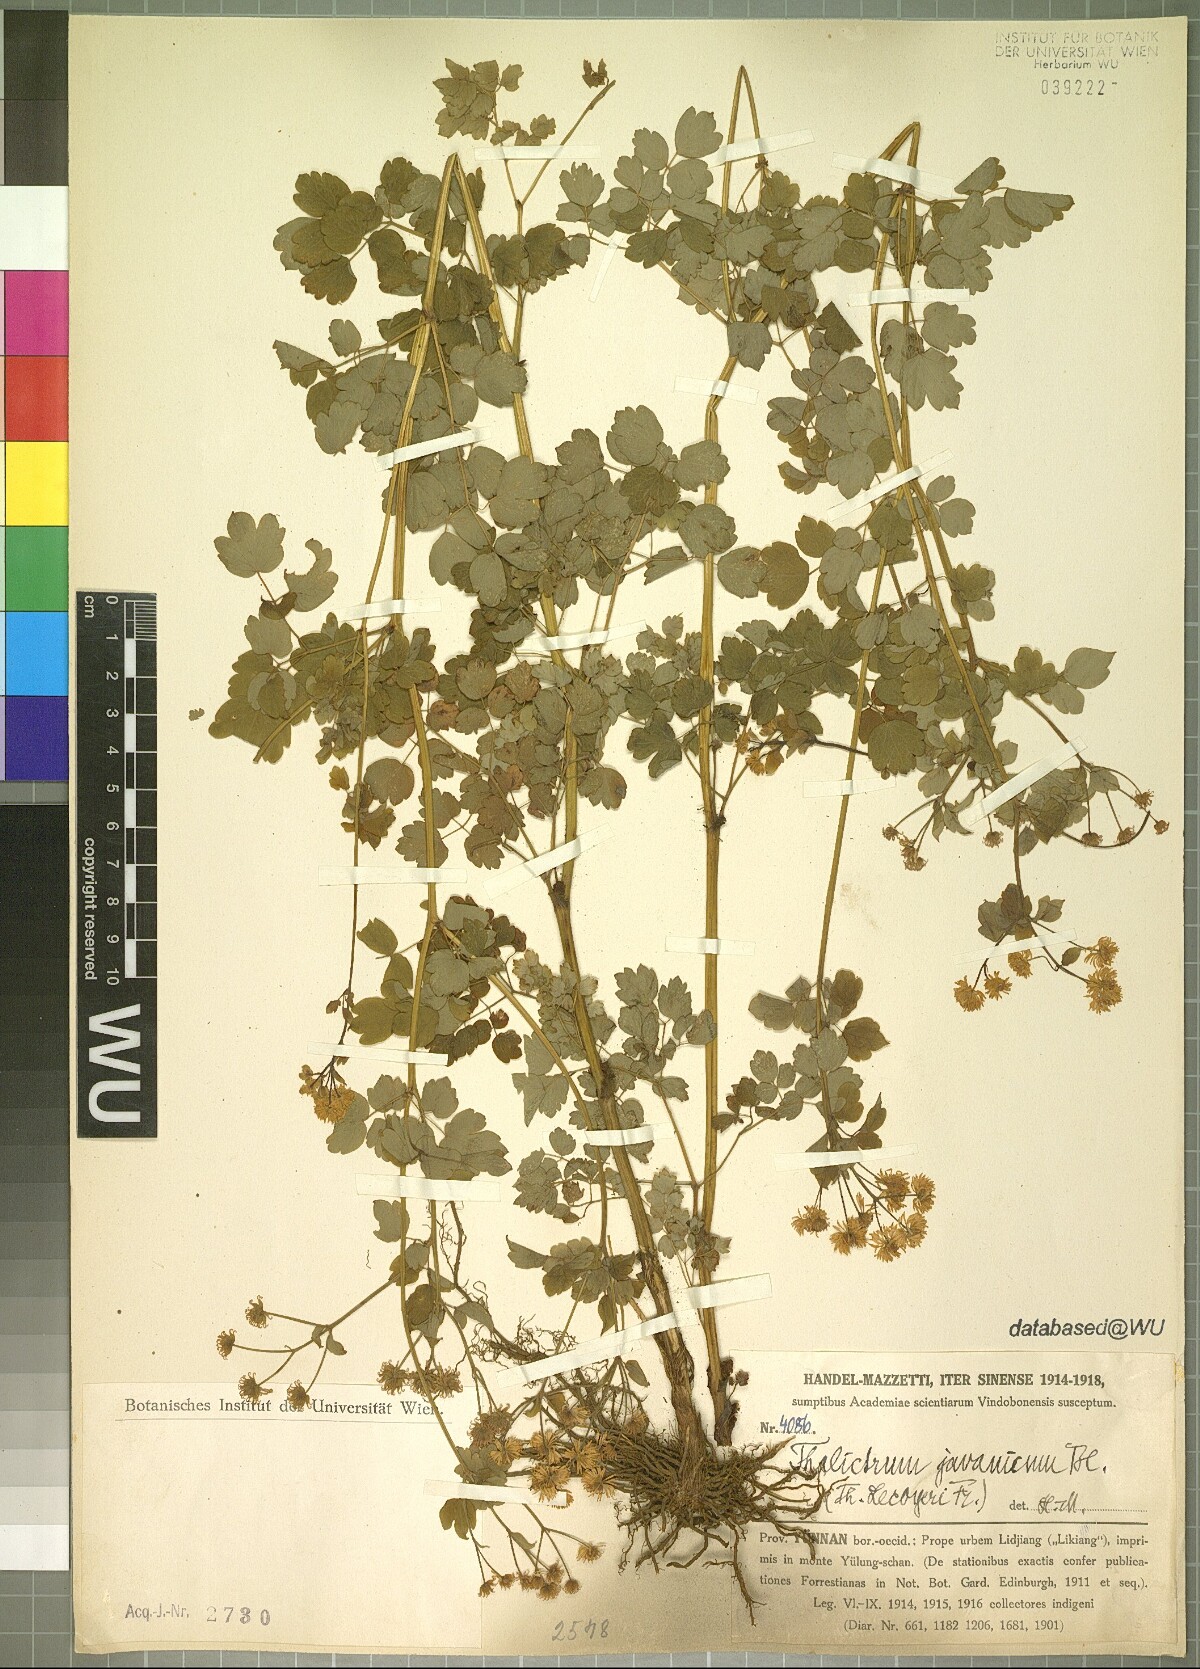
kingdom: Plantae
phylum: Tracheophyta
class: Magnoliopsida
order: Ranunculales
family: Ranunculaceae
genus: Thalictrum
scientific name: Thalictrum javanicum
